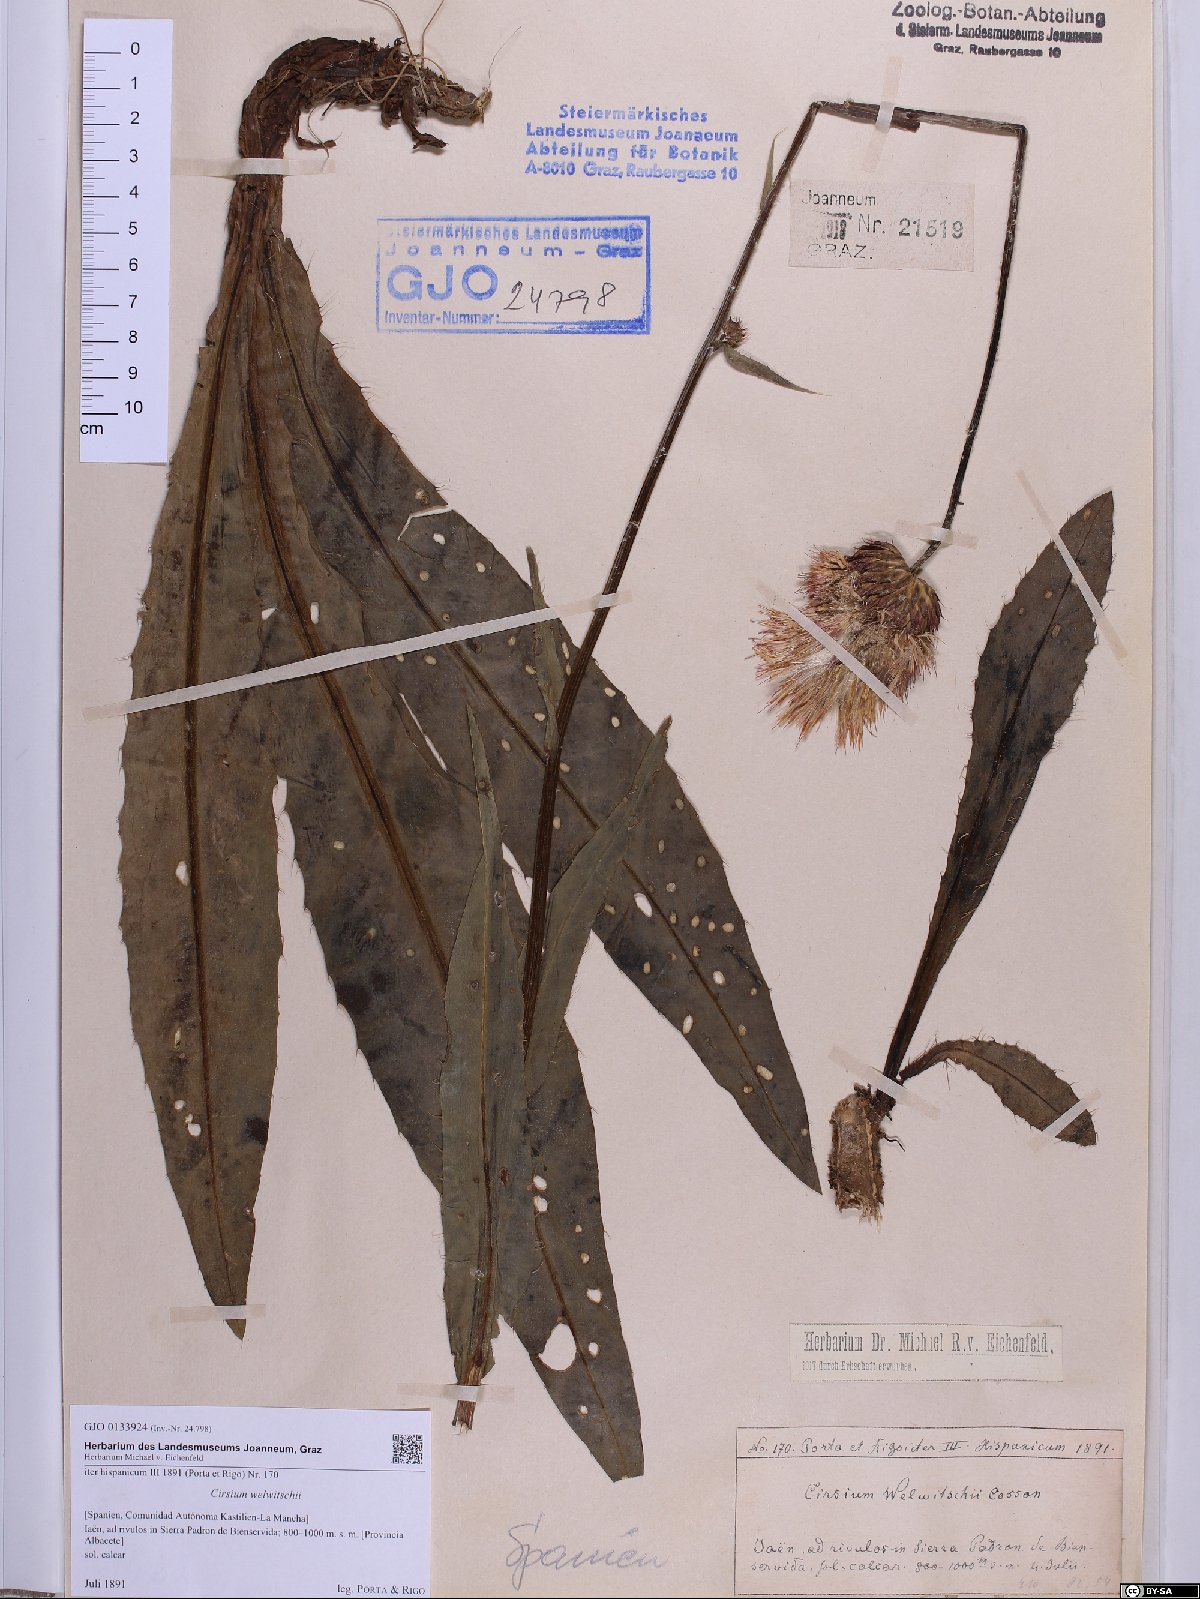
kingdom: Plantae
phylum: Tracheophyta
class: Magnoliopsida
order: Asterales
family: Asteraceae
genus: Cirsium
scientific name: Cirsium welwitschii
